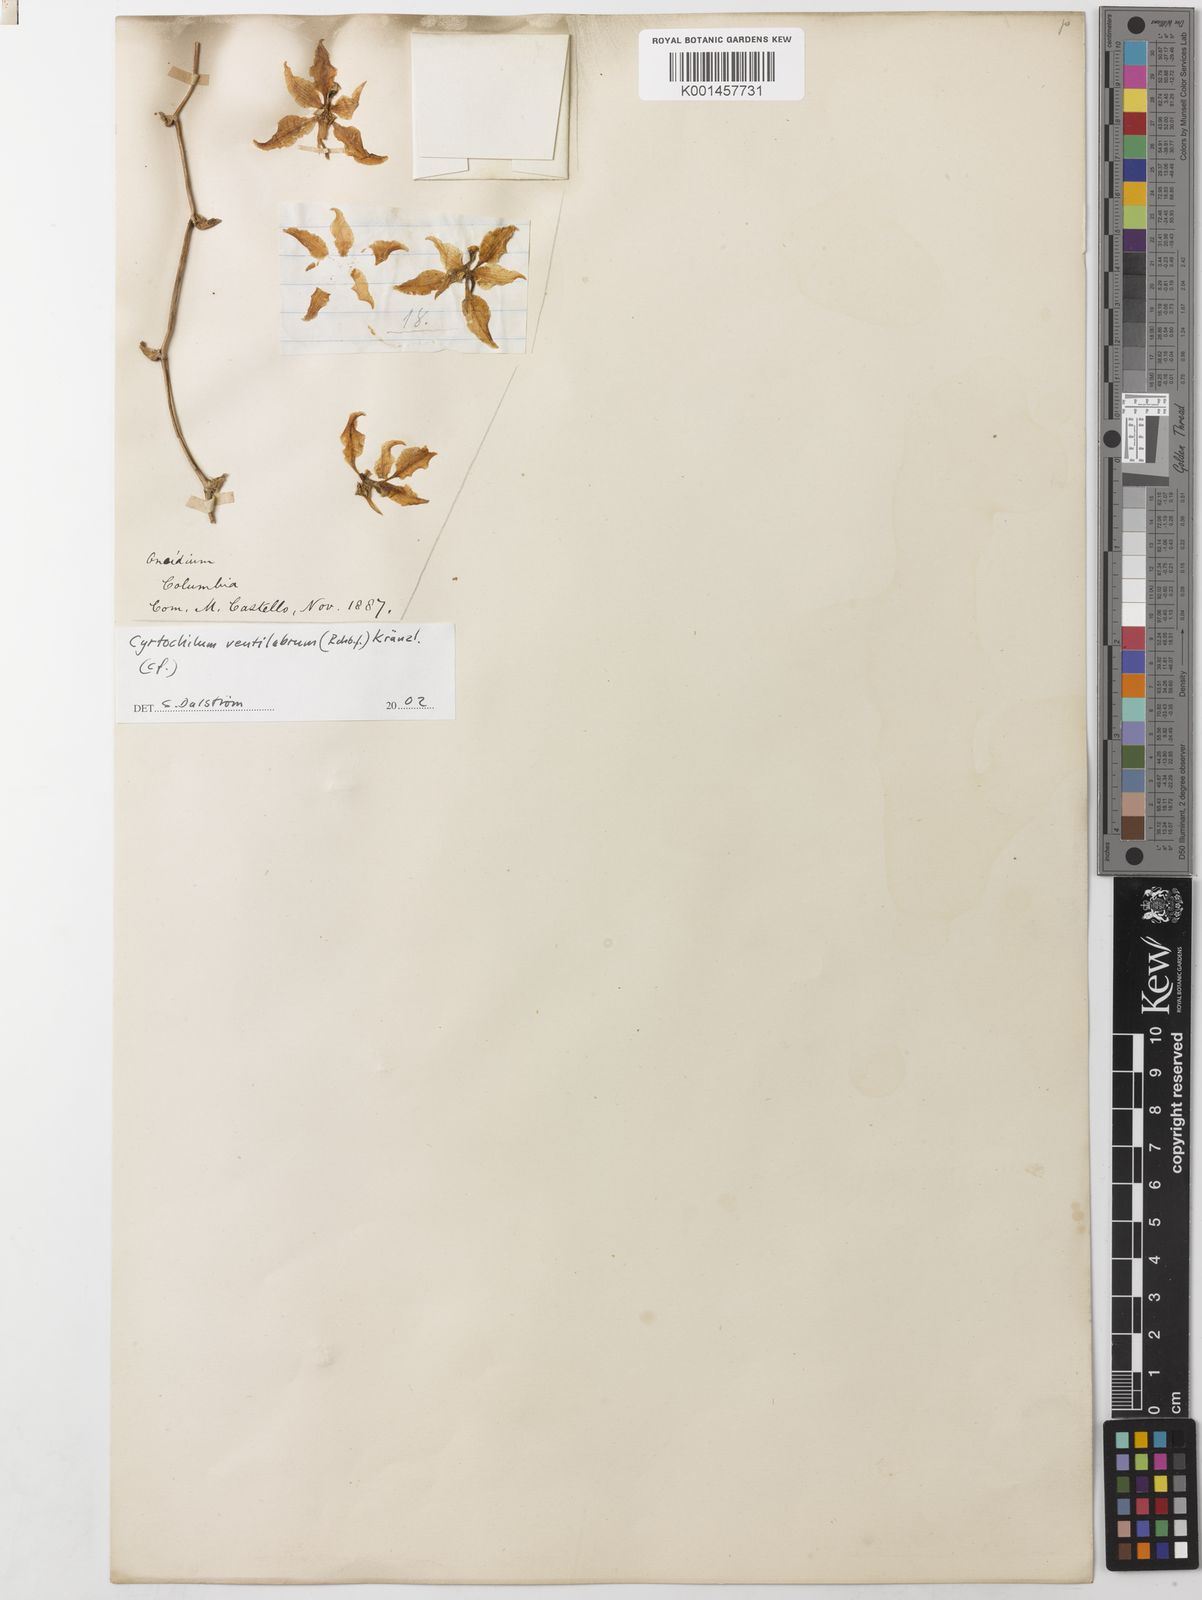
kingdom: Plantae
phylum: Tracheophyta
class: Liliopsida
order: Asparagales
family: Orchidaceae
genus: Cyrtochilum
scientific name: Cyrtochilum ventilabrum
